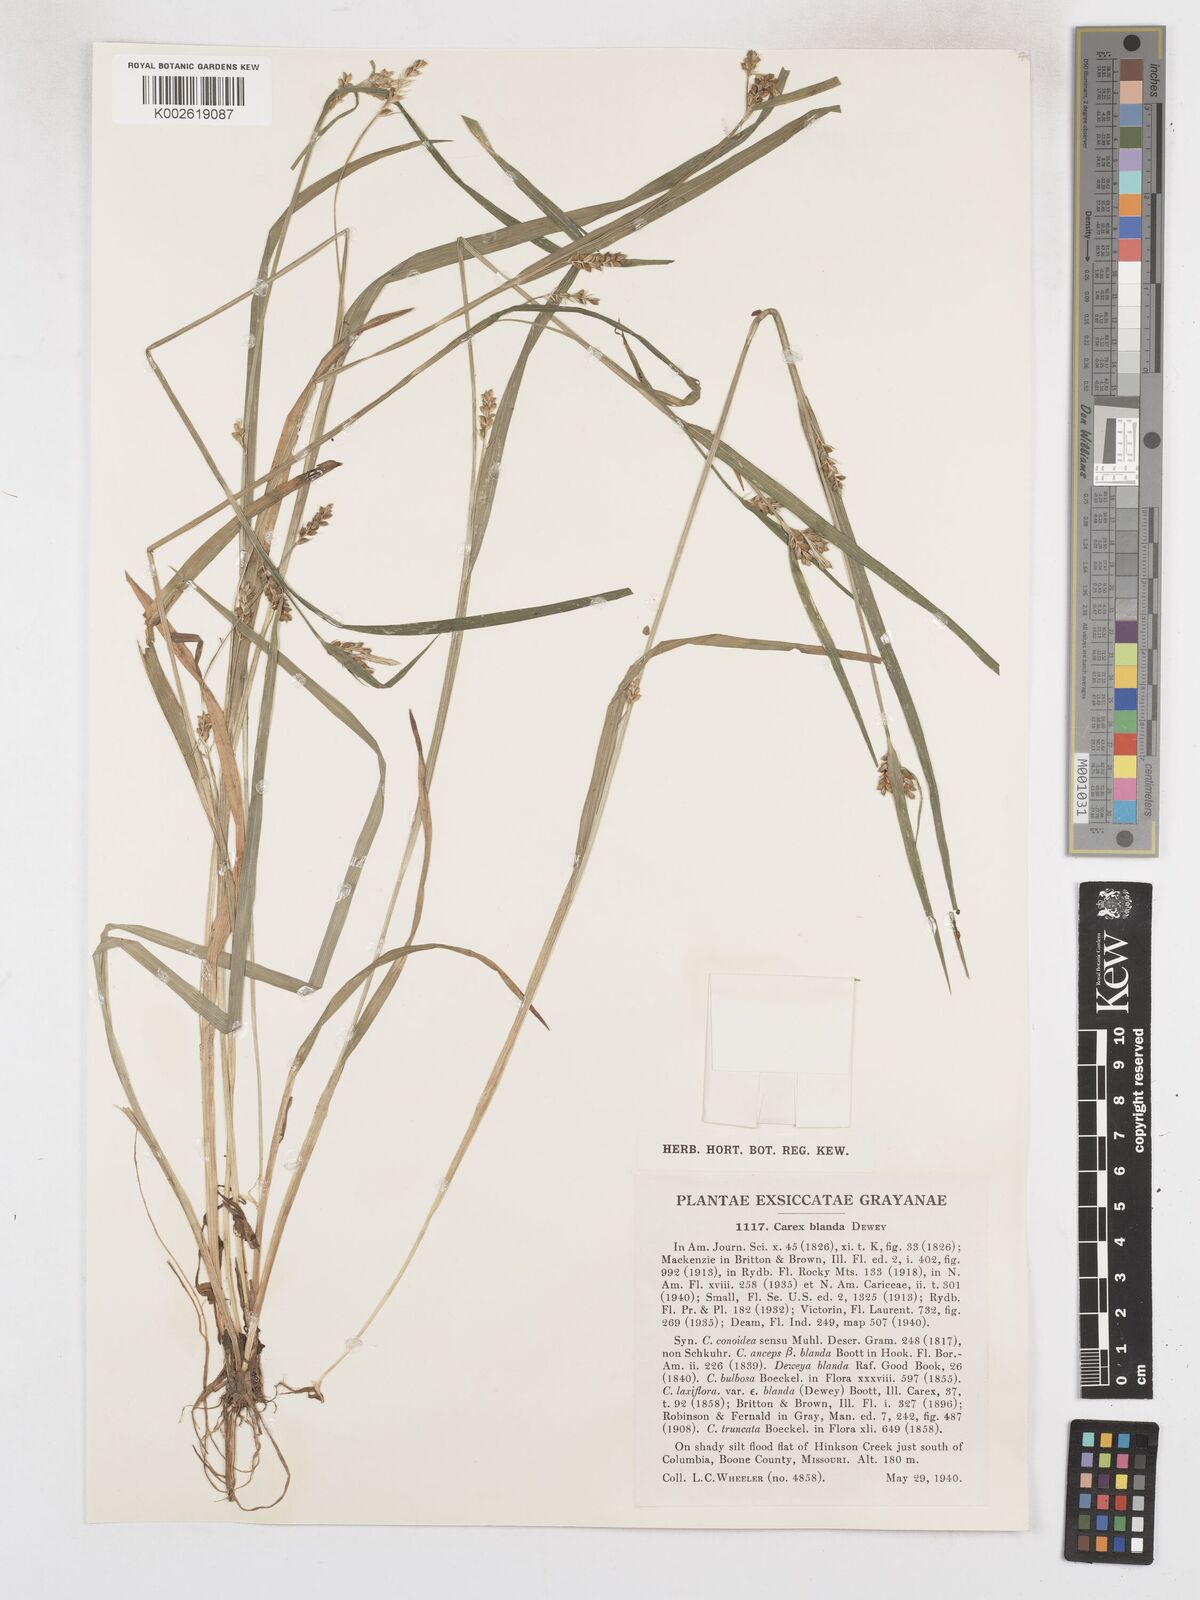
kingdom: Plantae
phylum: Tracheophyta
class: Liliopsida
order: Poales
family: Cyperaceae
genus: Carex
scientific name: Carex blanda
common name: Bland sedge
